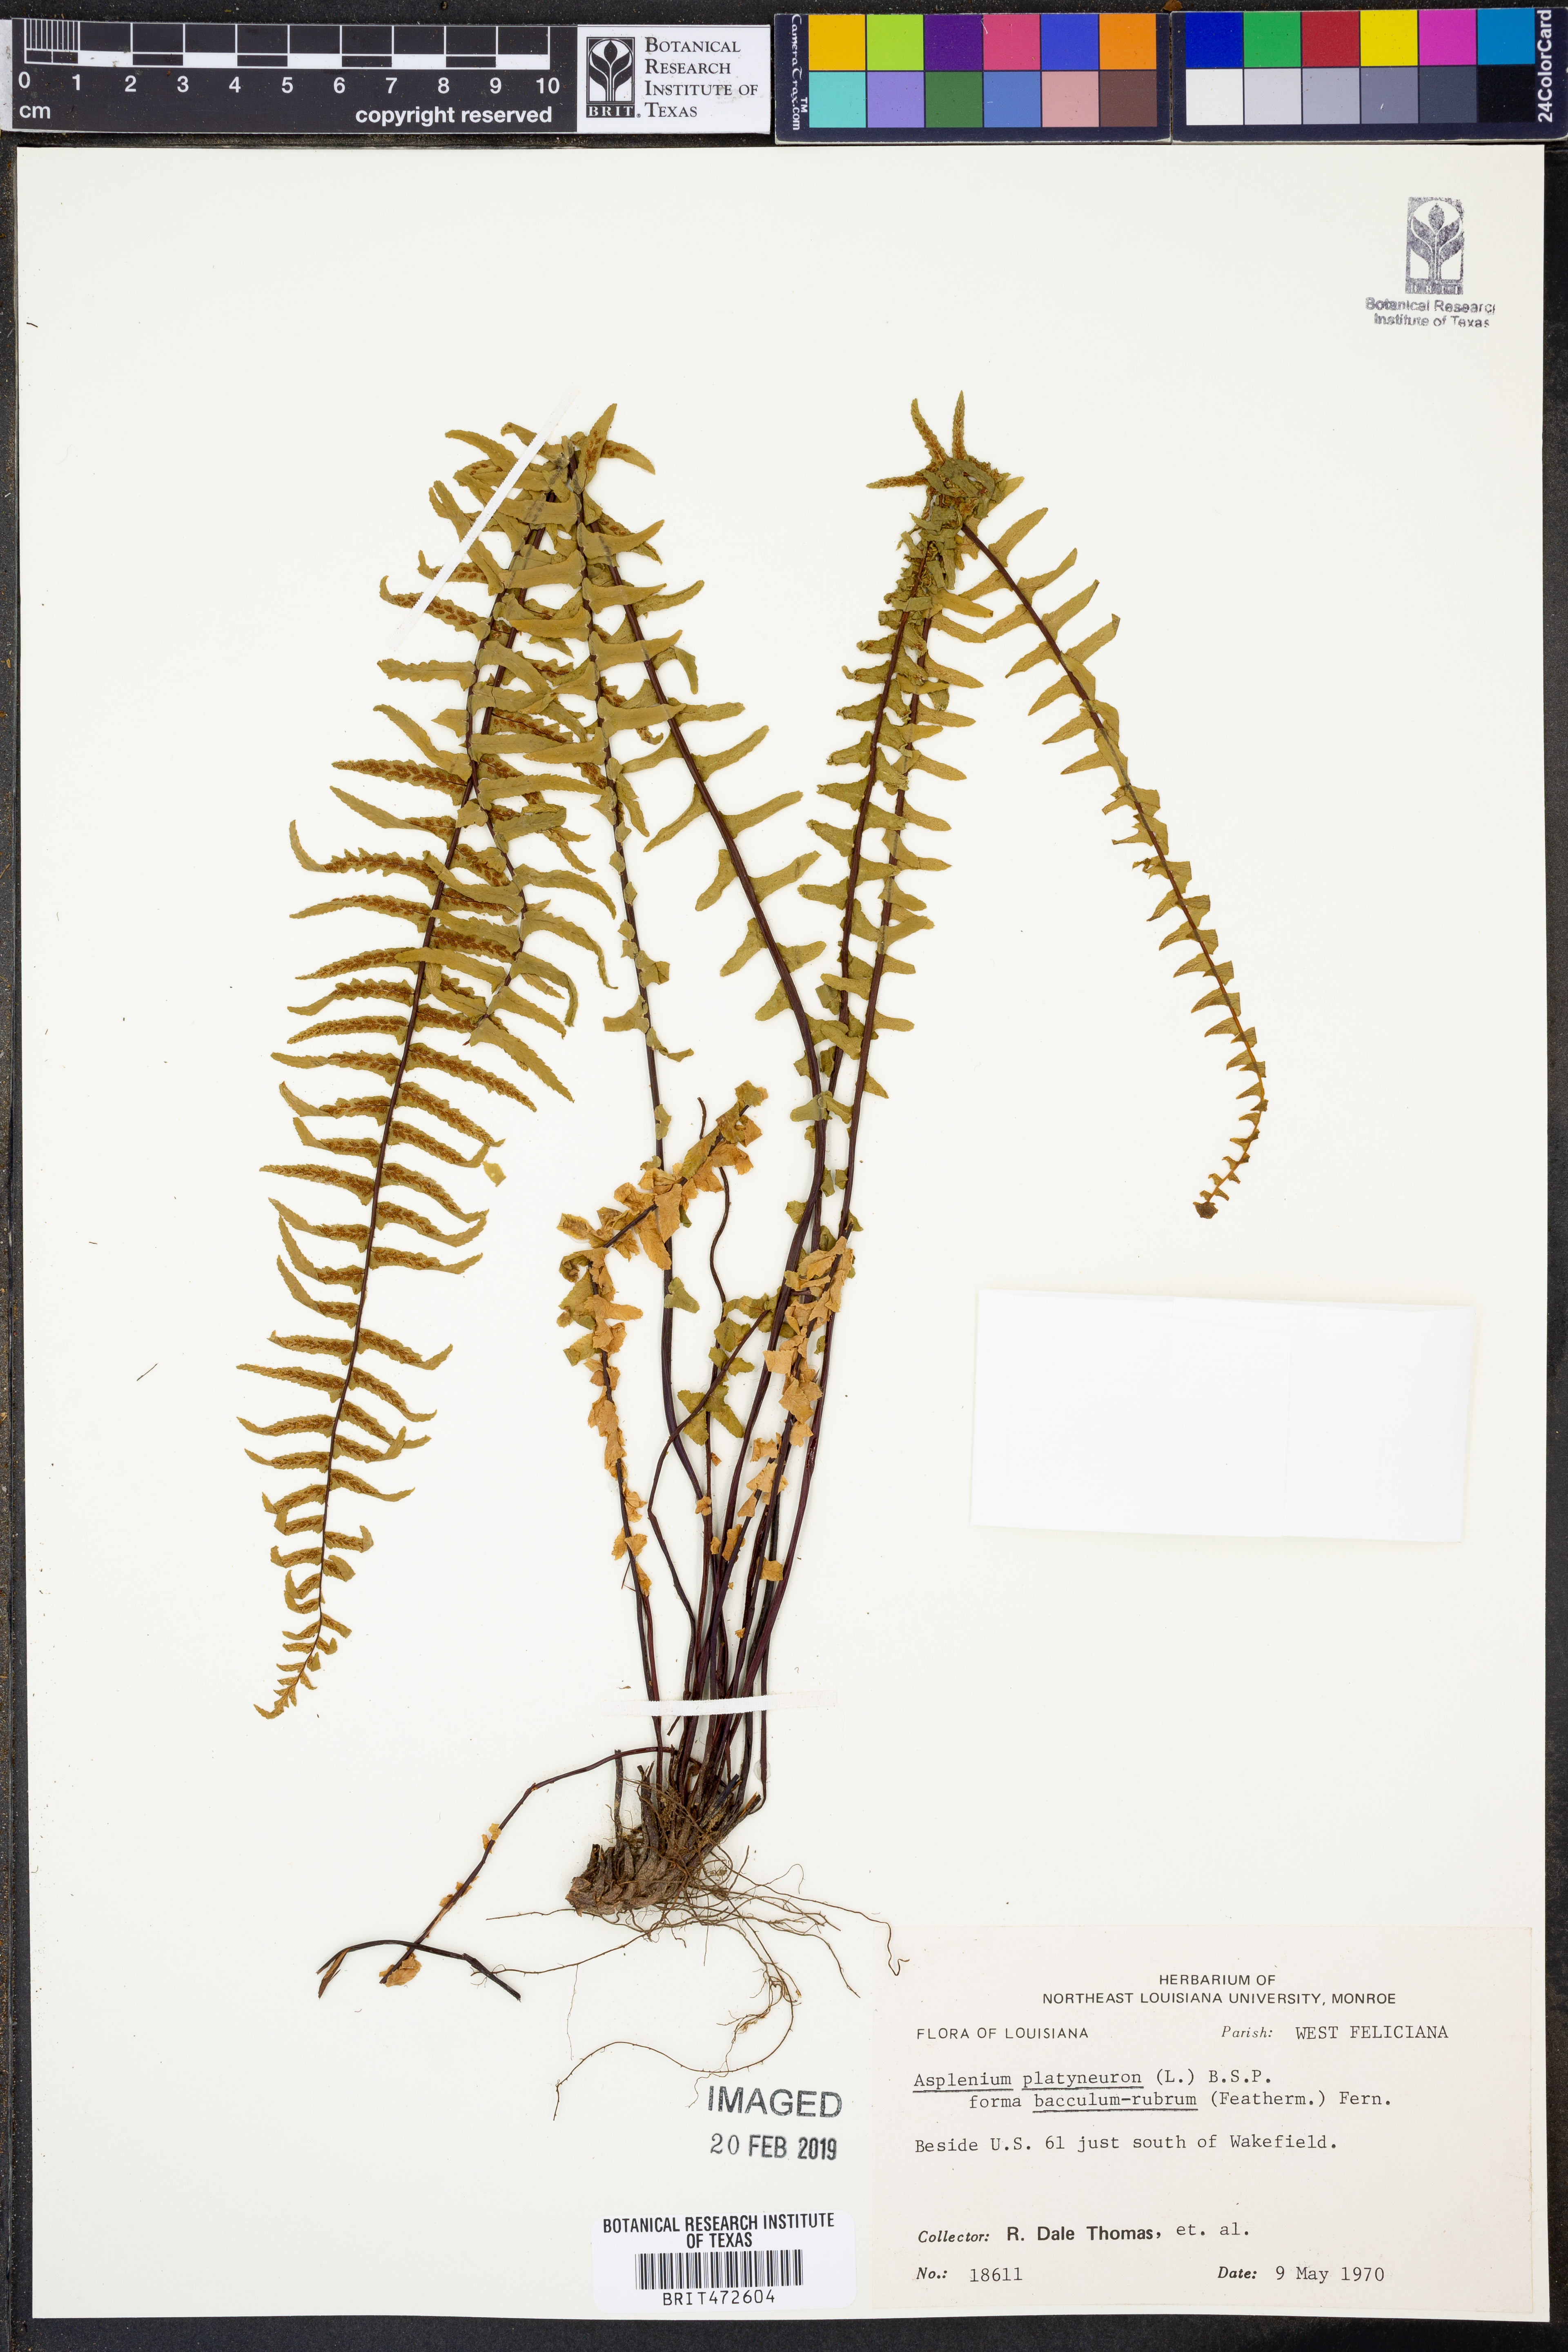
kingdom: Plantae
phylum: Tracheophyta
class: Polypodiopsida
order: Polypodiales
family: Aspleniaceae
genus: Asplenium
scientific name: Asplenium platyneuron
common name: Ebony spleenwort
